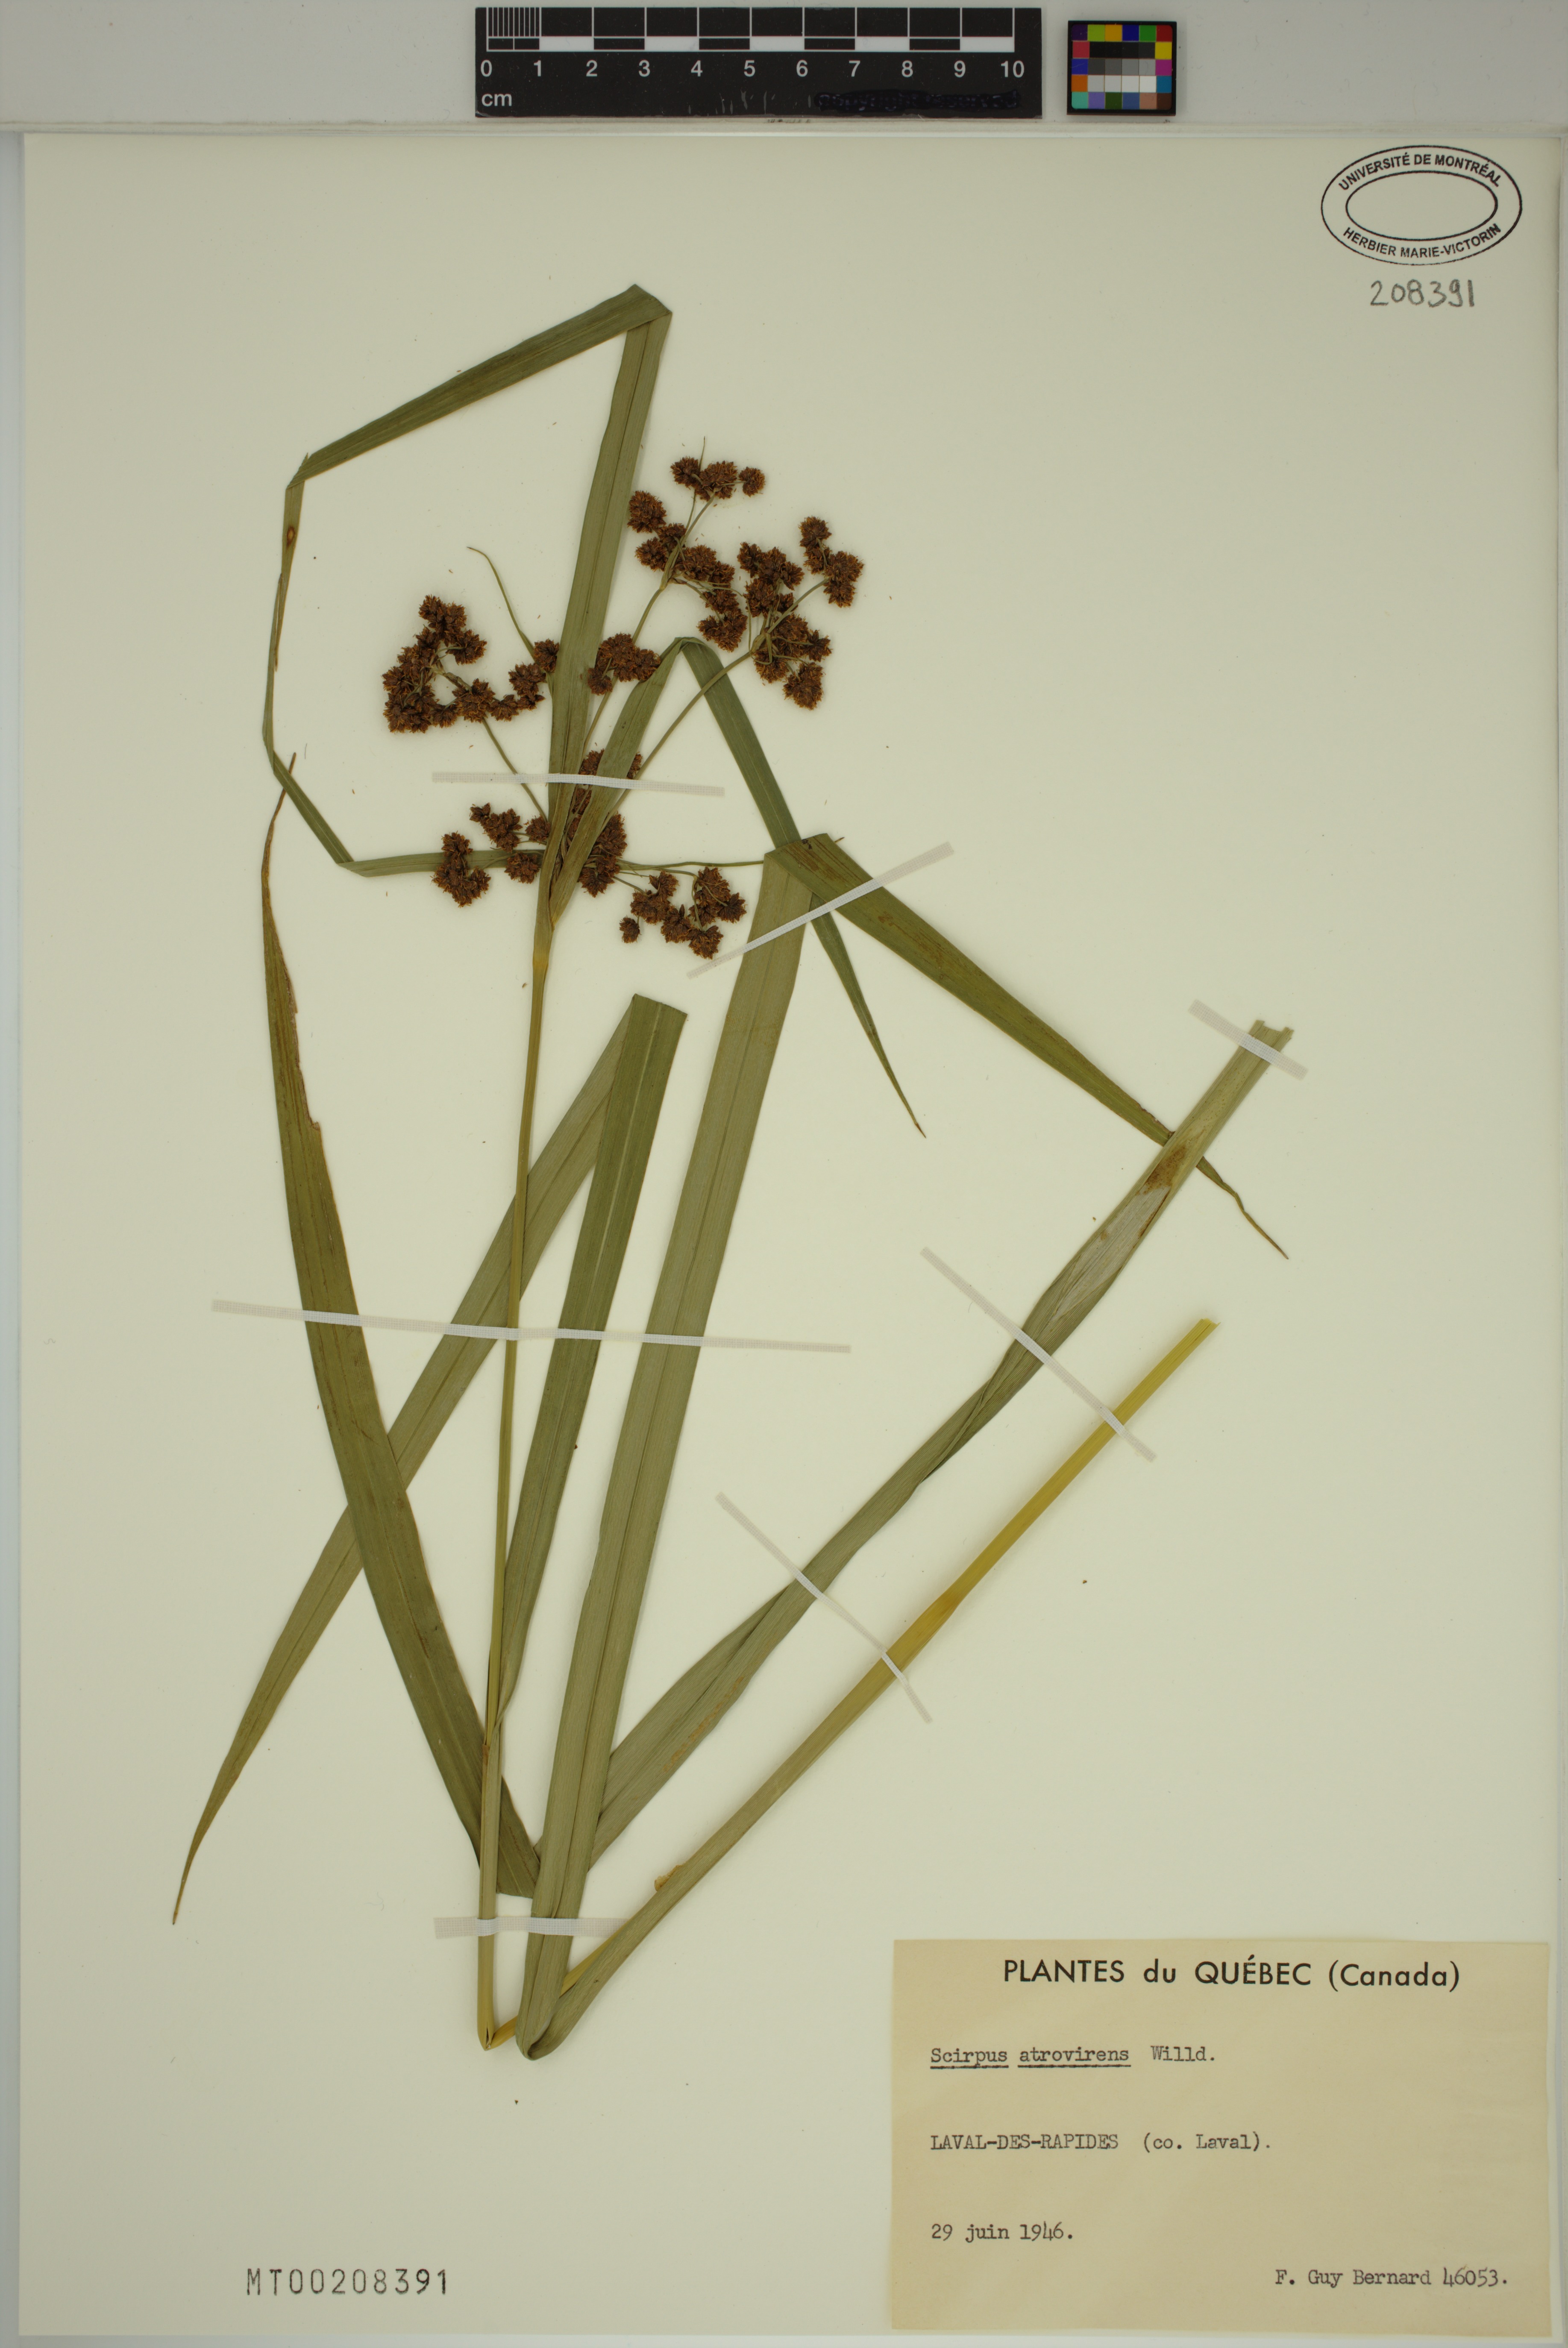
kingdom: Plantae
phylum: Tracheophyta
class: Liliopsida
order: Poales
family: Cyperaceae
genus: Scirpus
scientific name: Scirpus atrovirens
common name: Black bulrush
